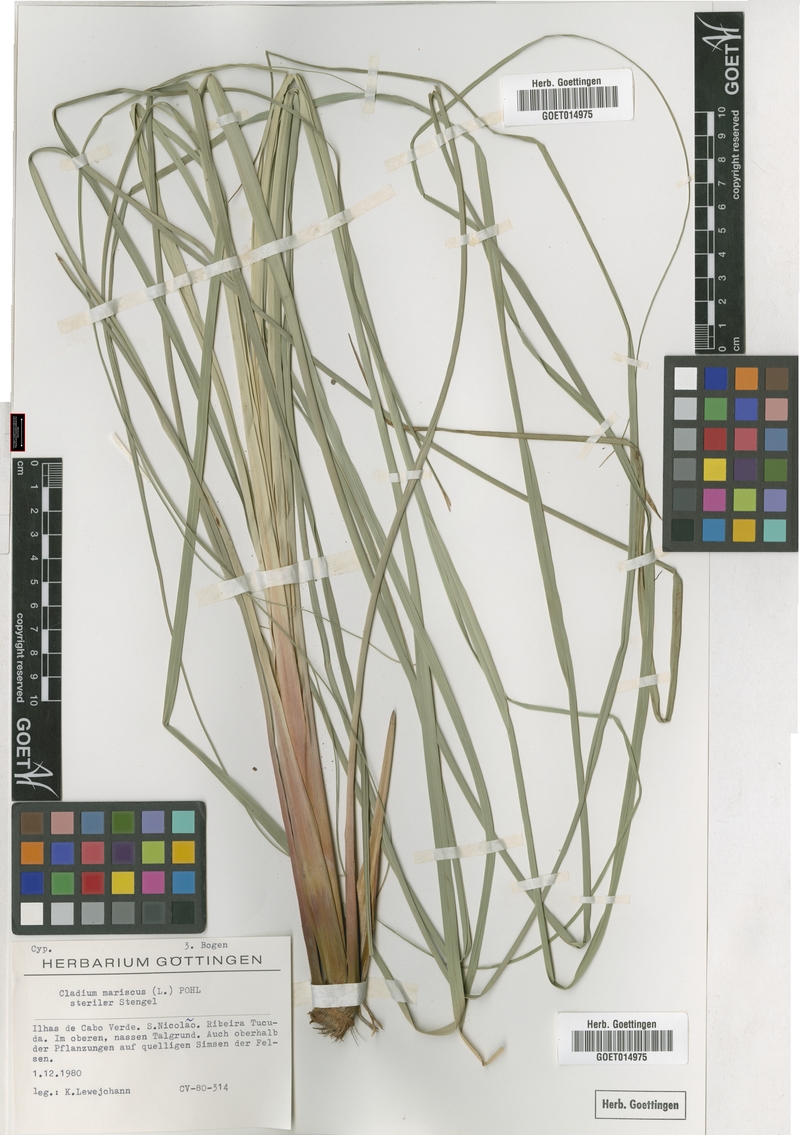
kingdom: Plantae
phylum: Tracheophyta
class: Liliopsida
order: Poales
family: Cyperaceae
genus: Cladium
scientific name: Cladium mariscus
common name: Great fen-sedge
